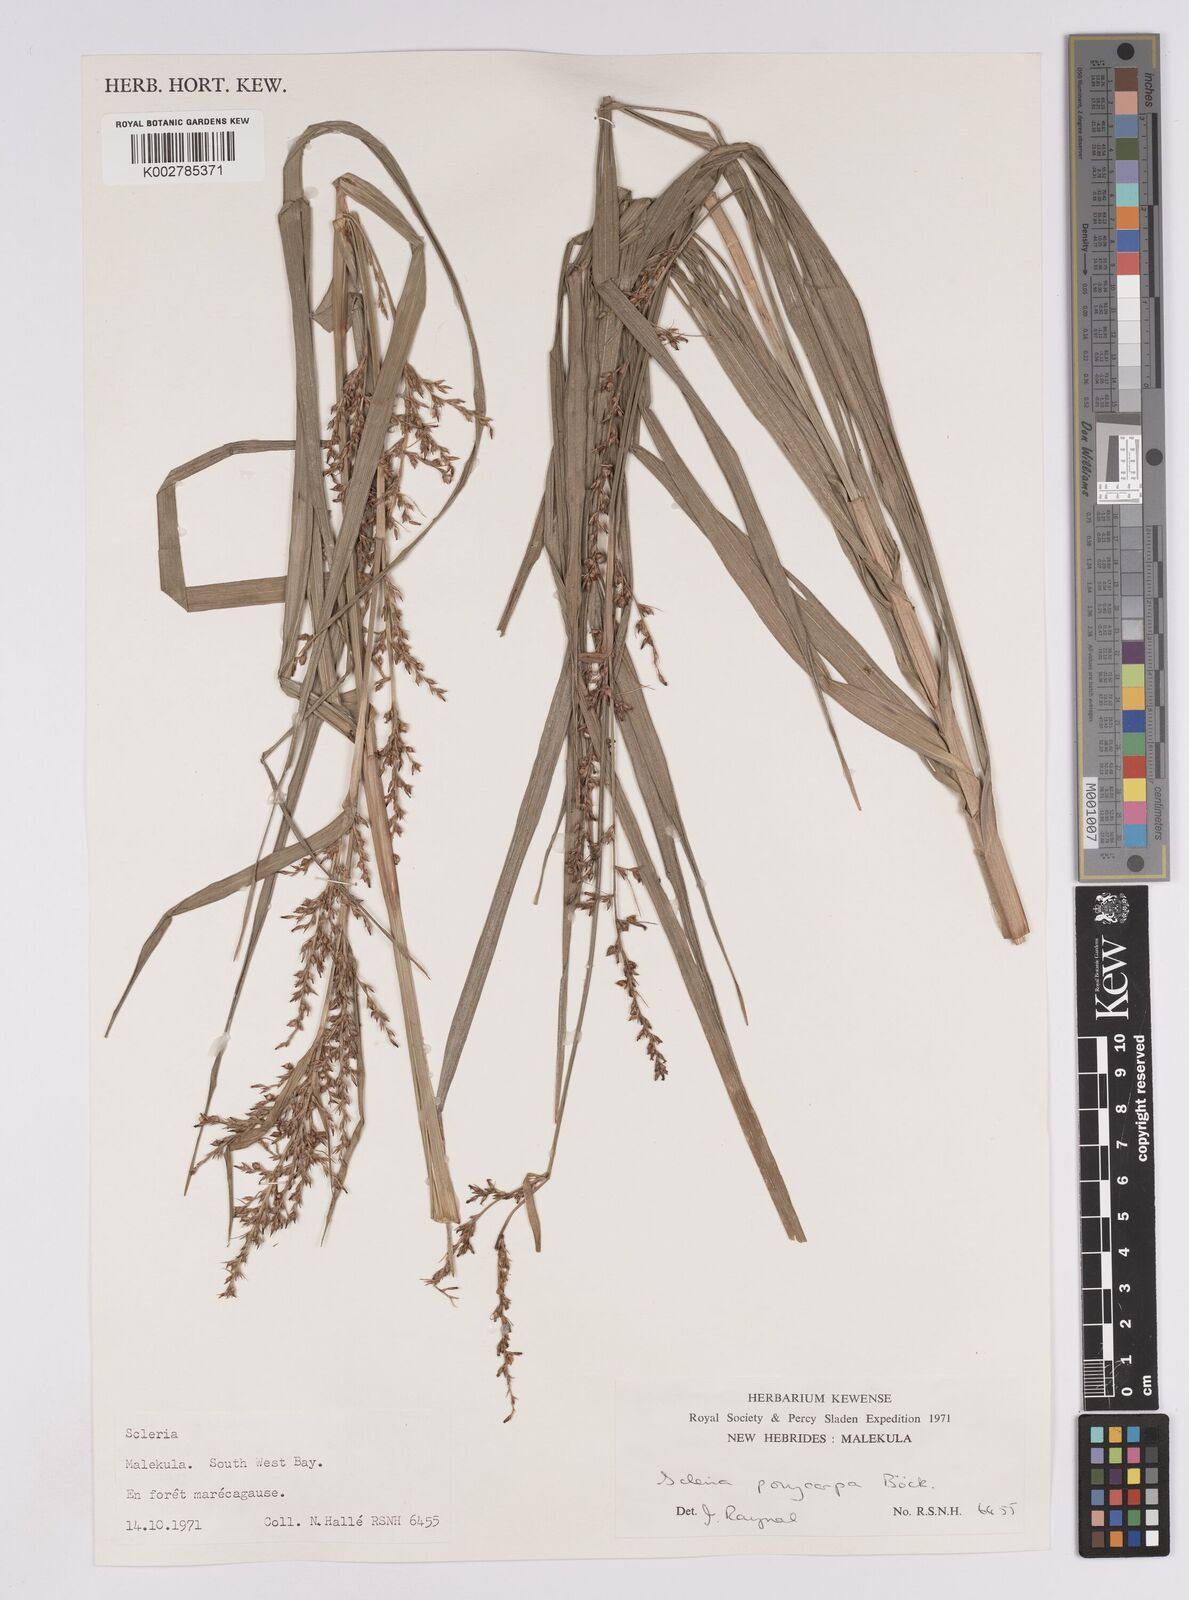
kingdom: Plantae
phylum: Tracheophyta
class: Liliopsida
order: Poales
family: Cyperaceae
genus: Scleria
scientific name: Scleria polycarpa
